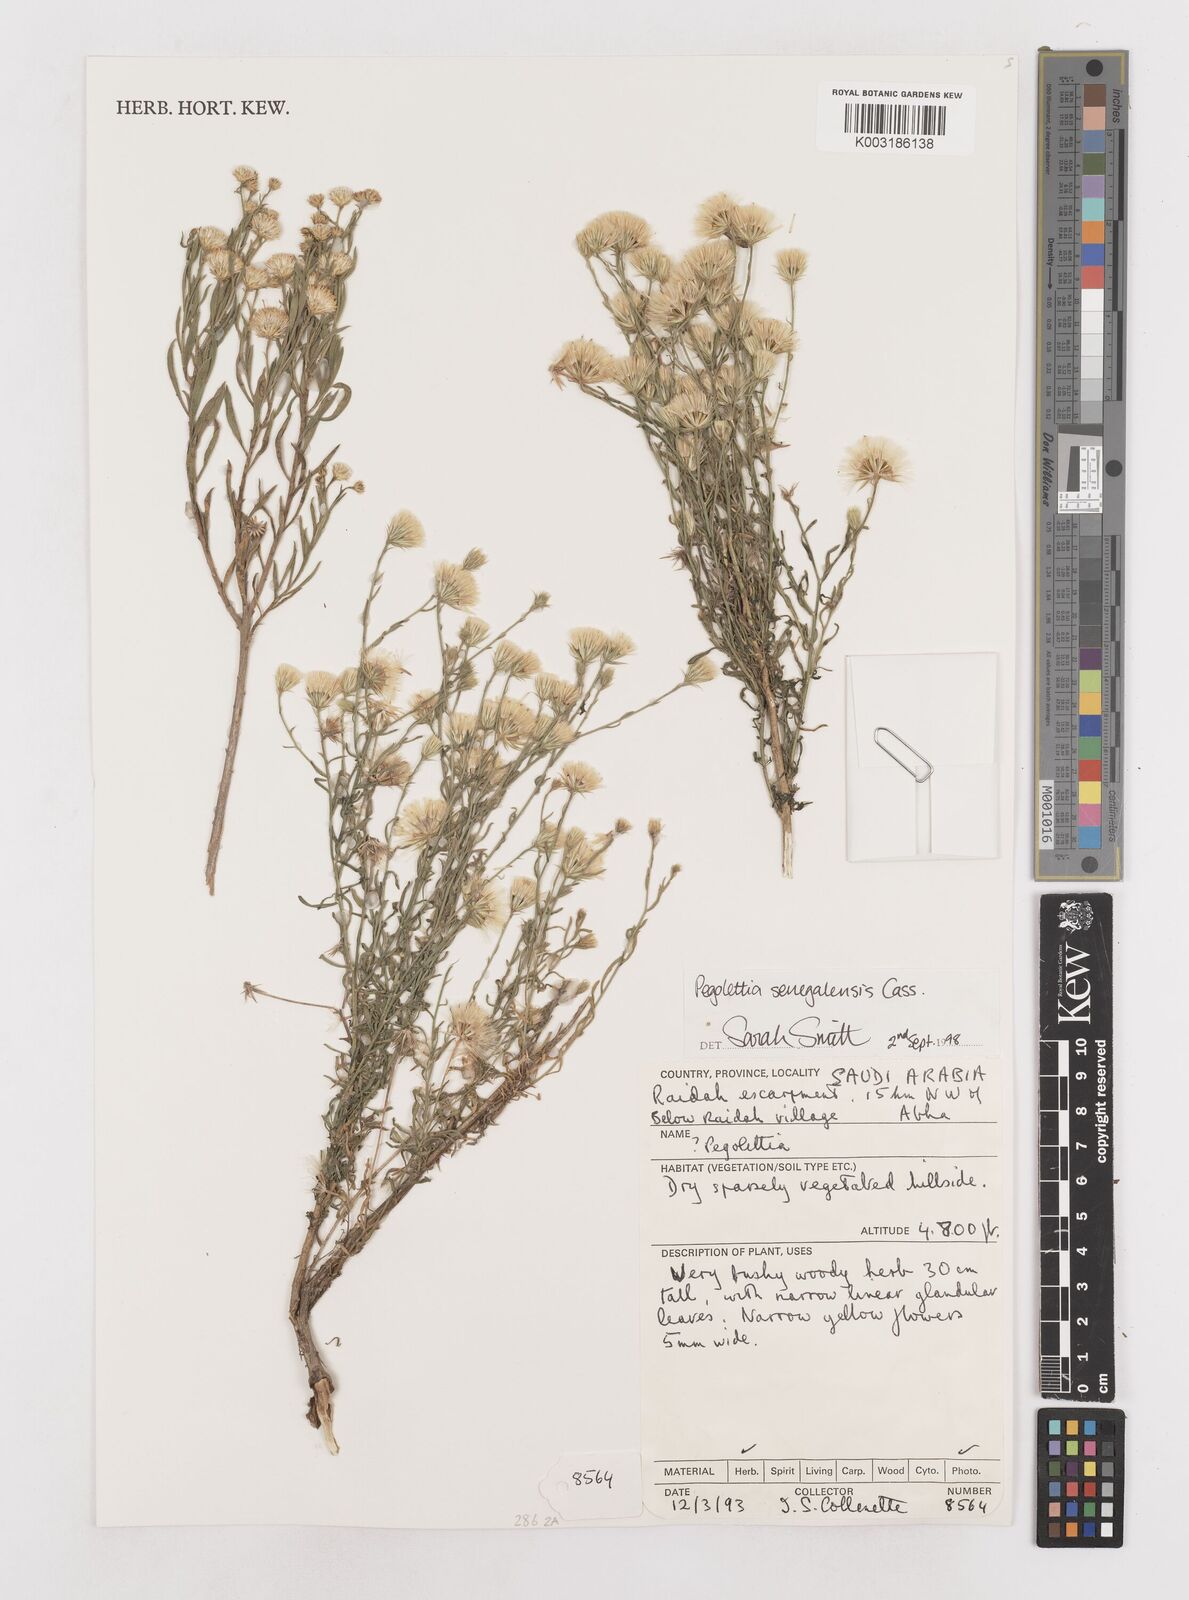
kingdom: Plantae
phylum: Tracheophyta
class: Magnoliopsida
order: Asterales
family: Asteraceae
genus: Pegolettia
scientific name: Pegolettia senegalensis
